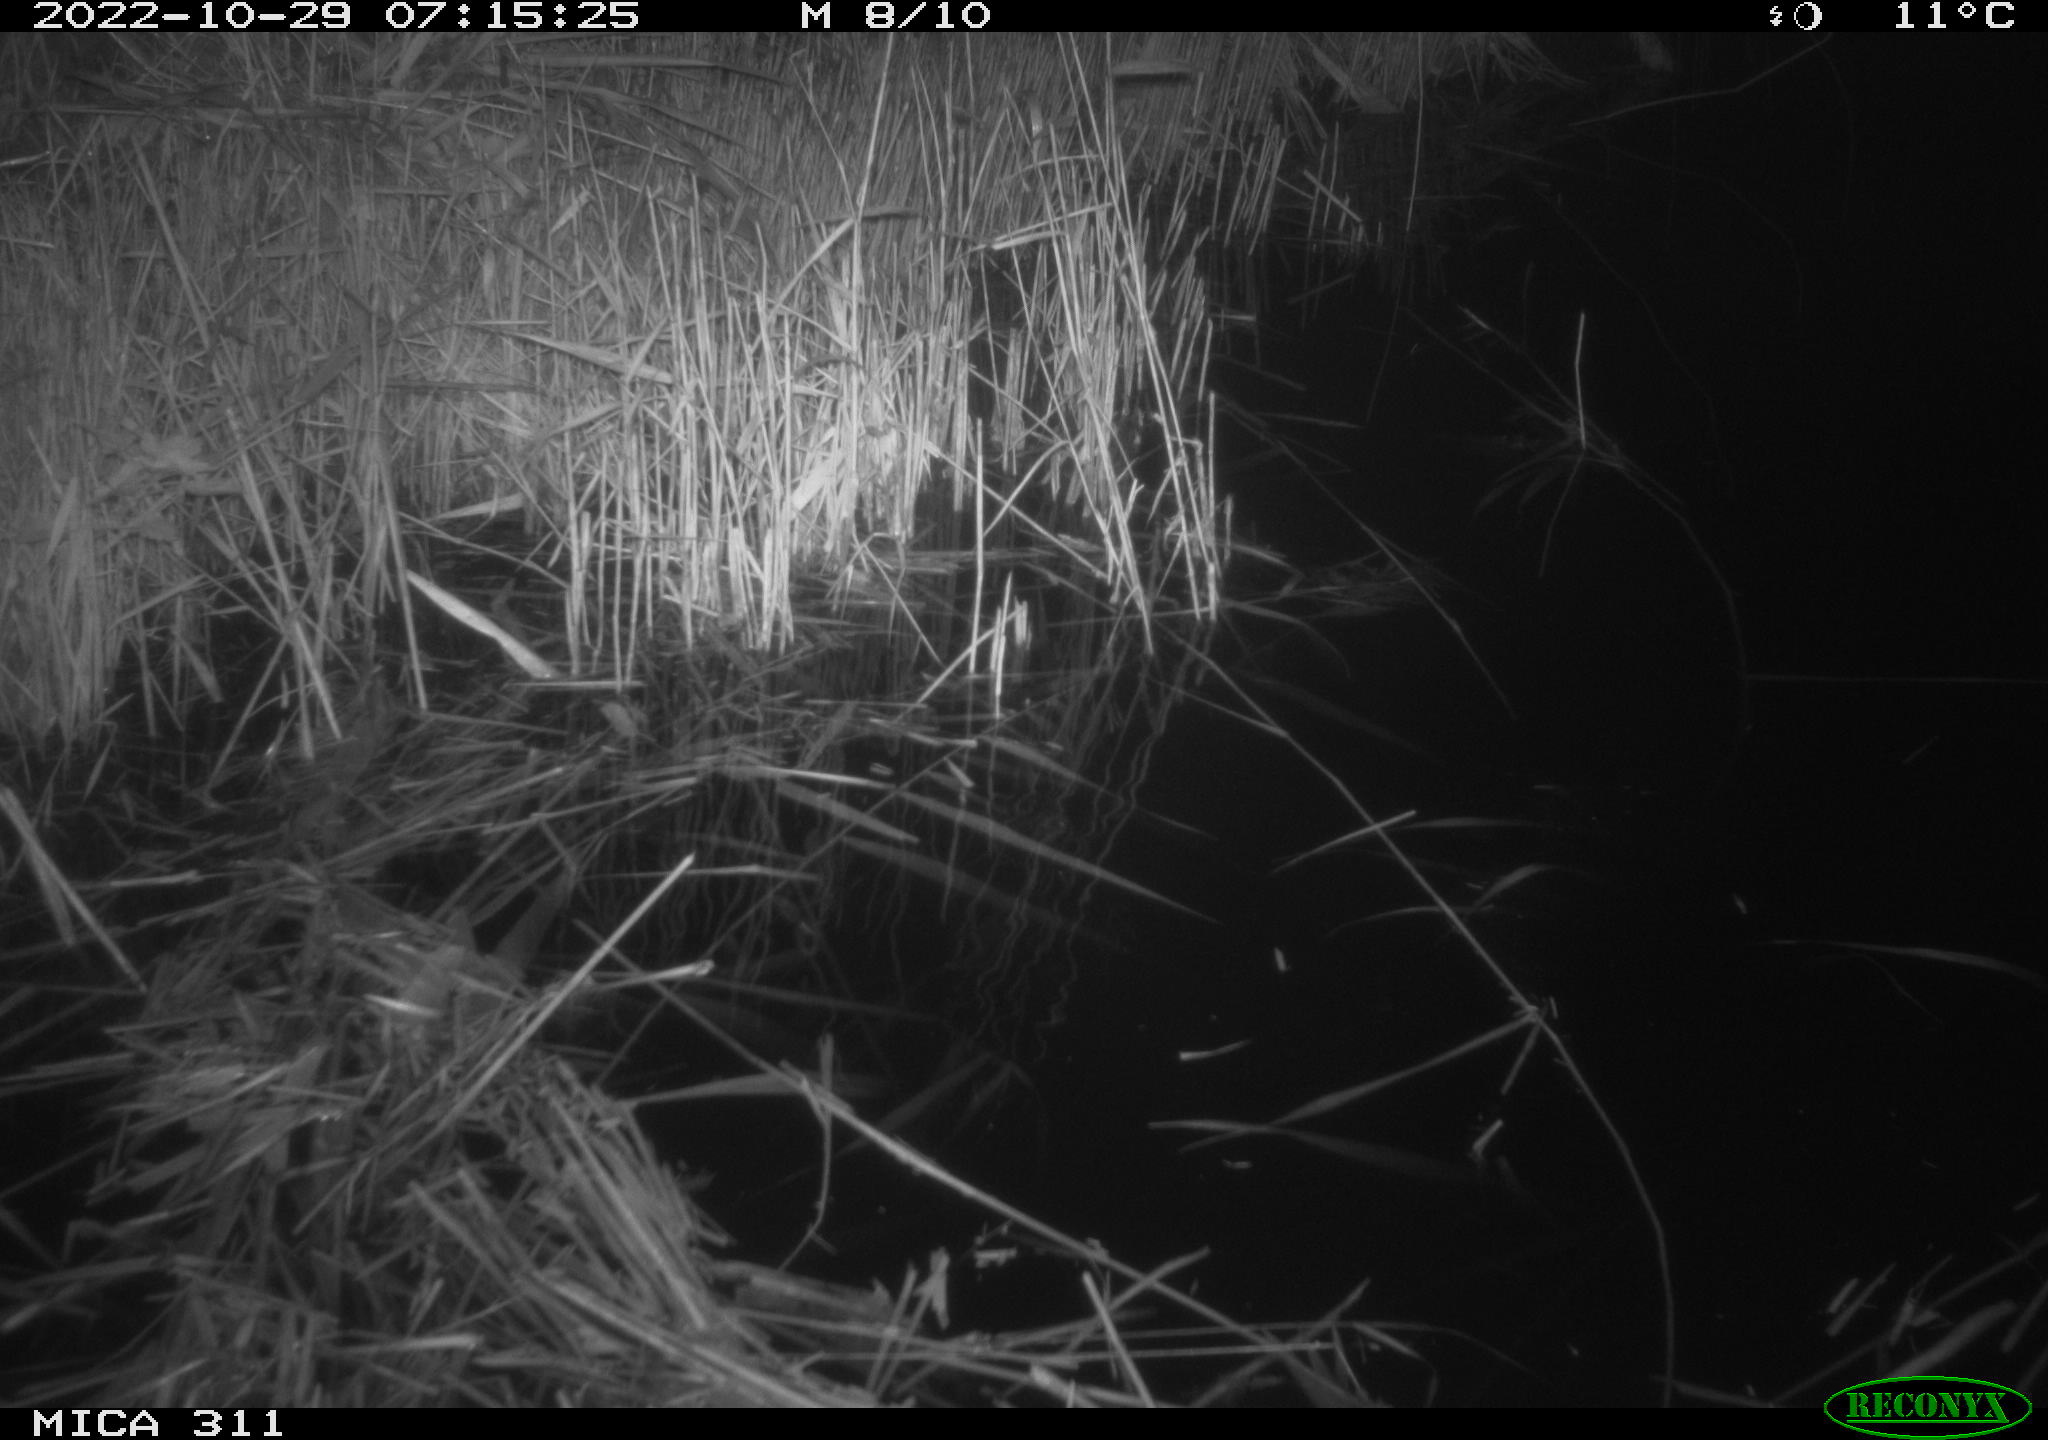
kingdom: Animalia
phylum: Chordata
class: Mammalia
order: Rodentia
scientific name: Rodentia
